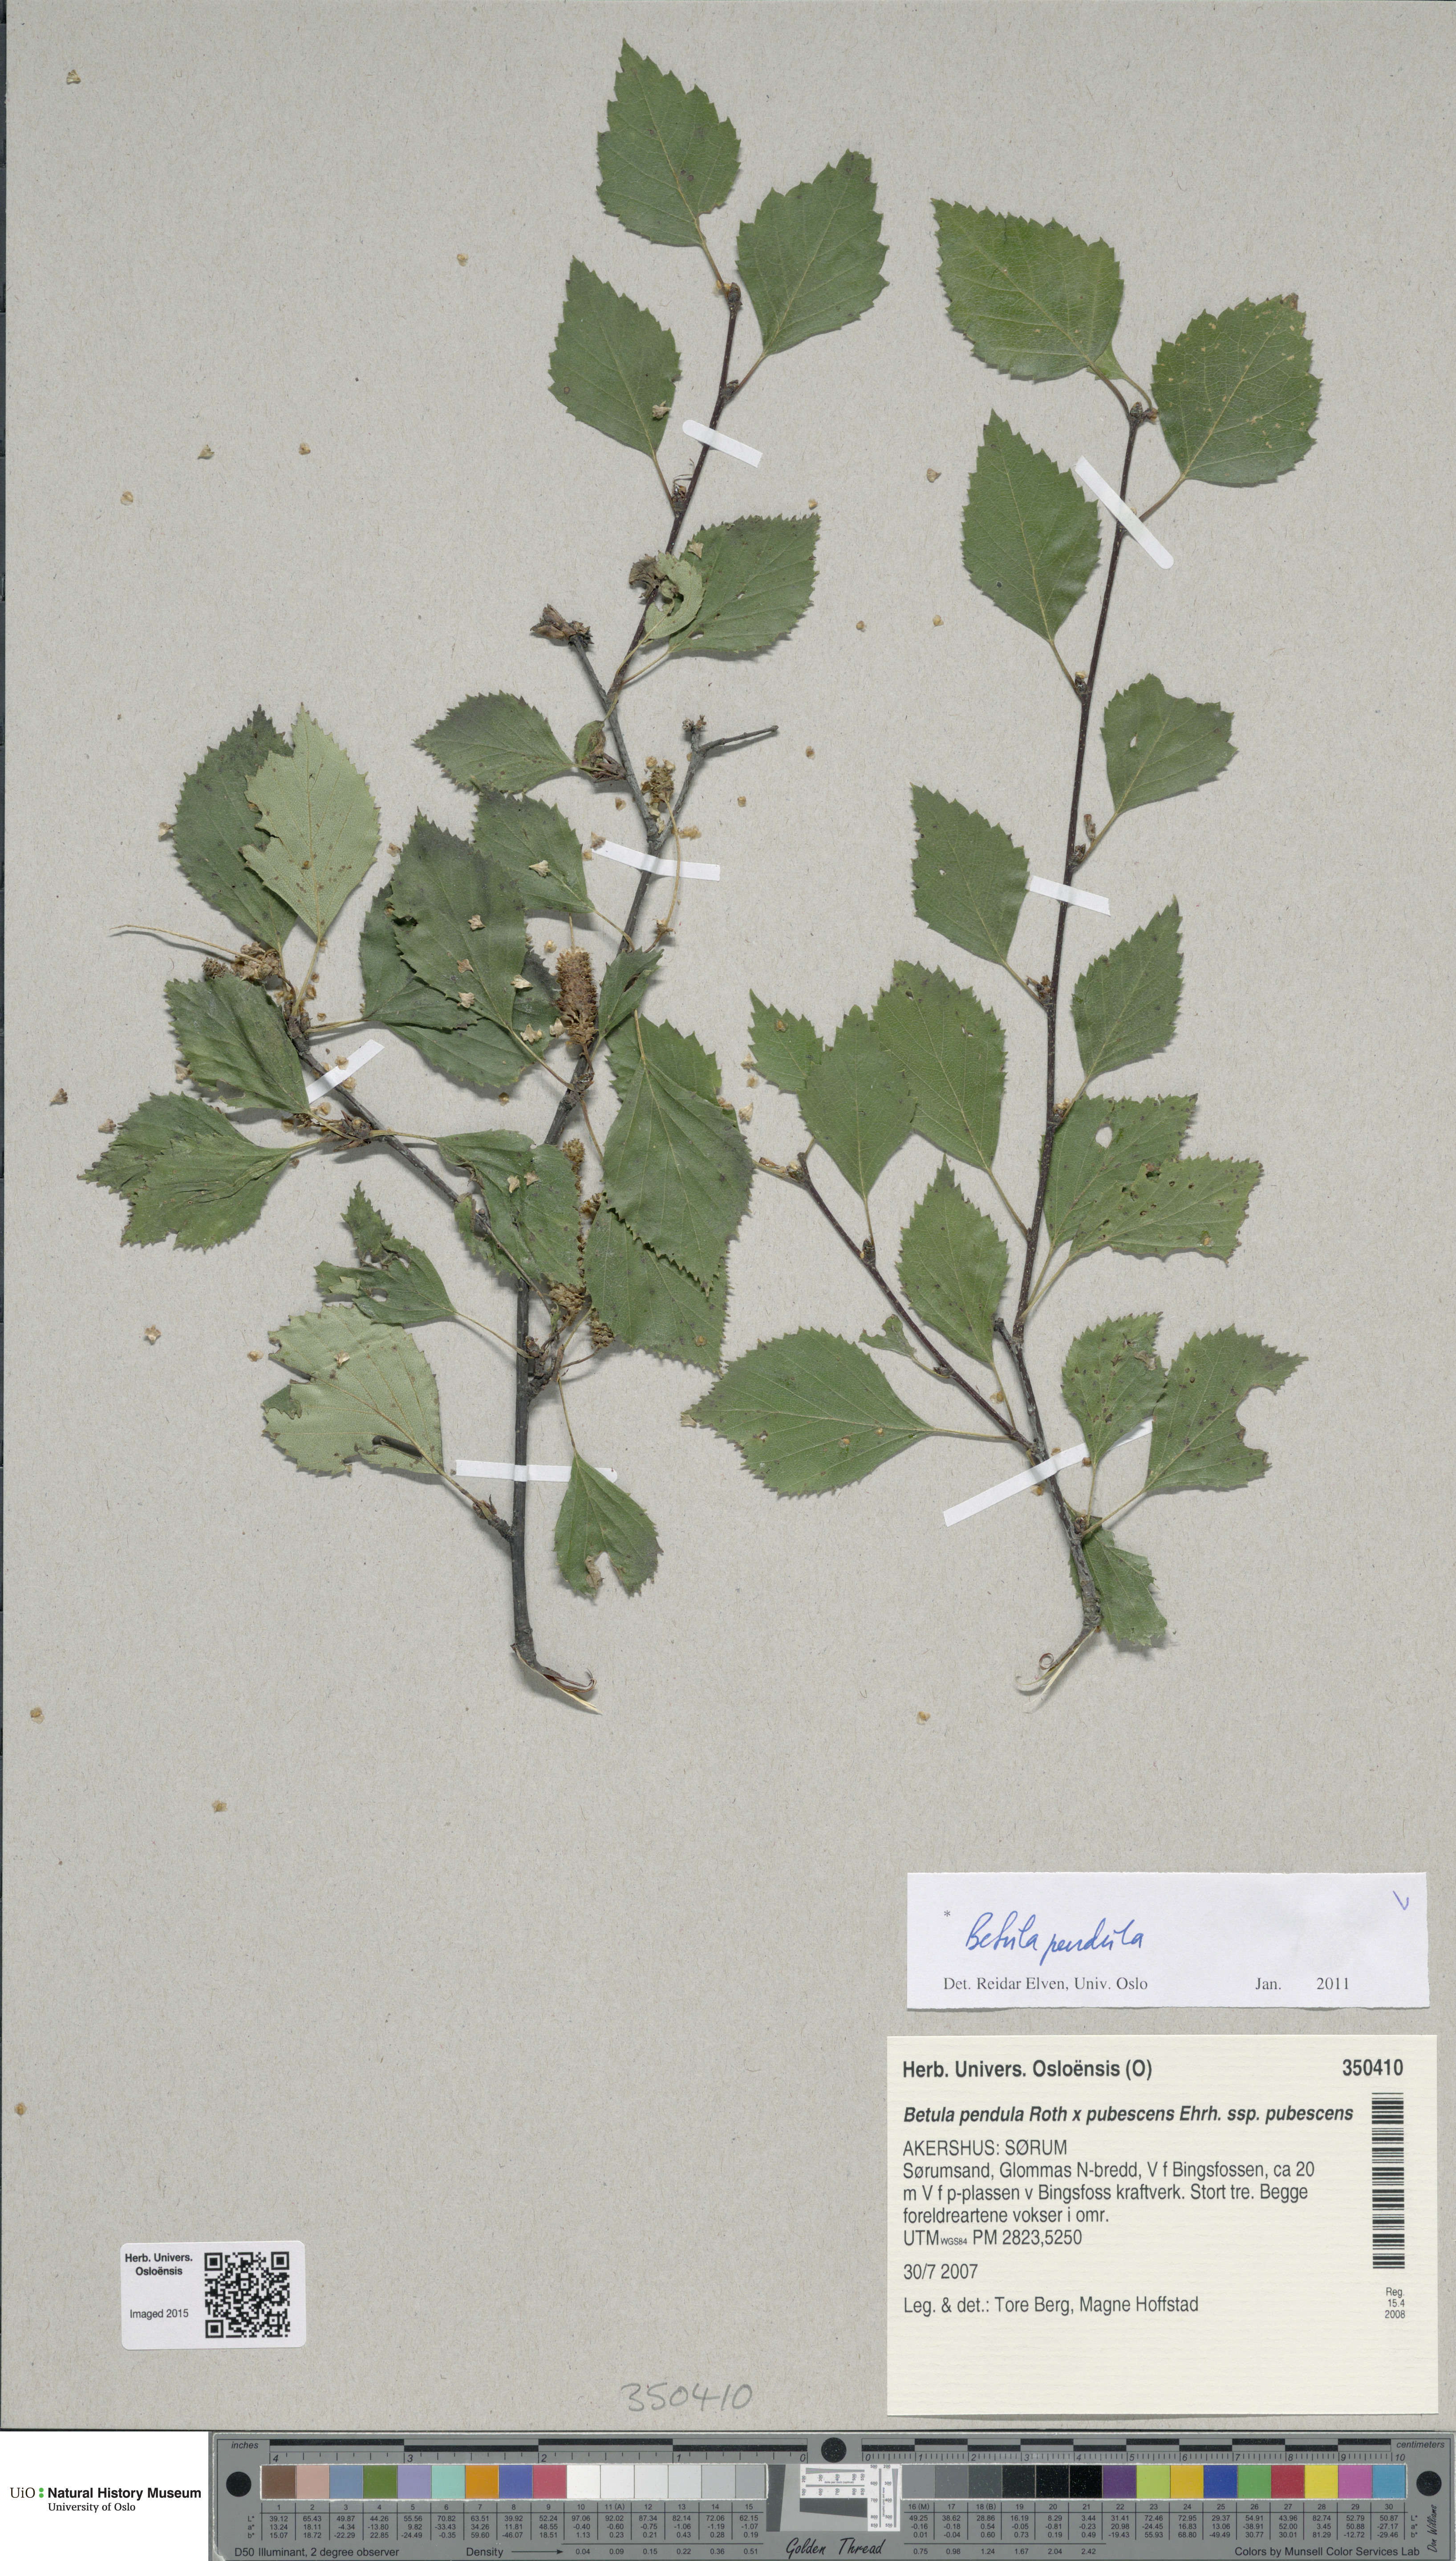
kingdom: Plantae
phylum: Tracheophyta
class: Magnoliopsida
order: Fagales
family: Betulaceae
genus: Betula
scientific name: Betula pendula
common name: Silver birch
